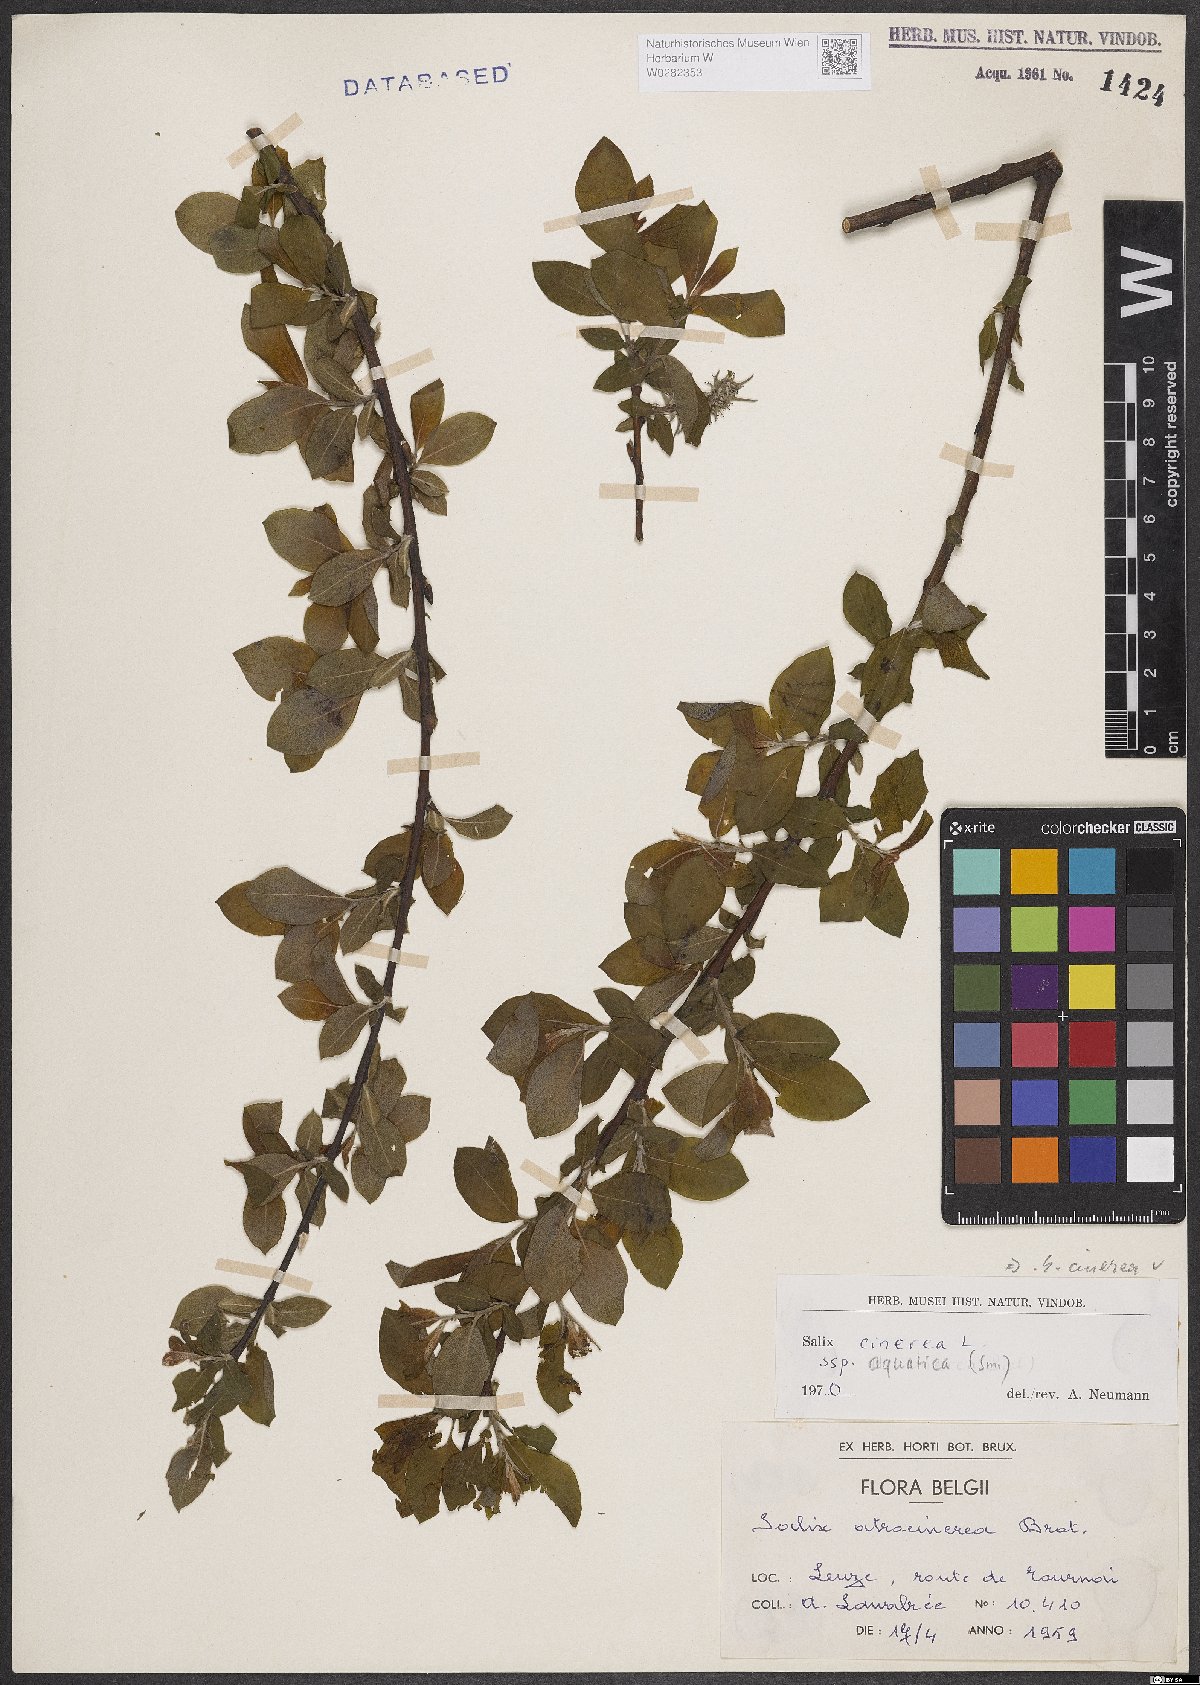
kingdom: Plantae
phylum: Tracheophyta
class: Magnoliopsida
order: Malpighiales
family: Salicaceae
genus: Salix
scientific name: Salix cinerea
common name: Common sallow
